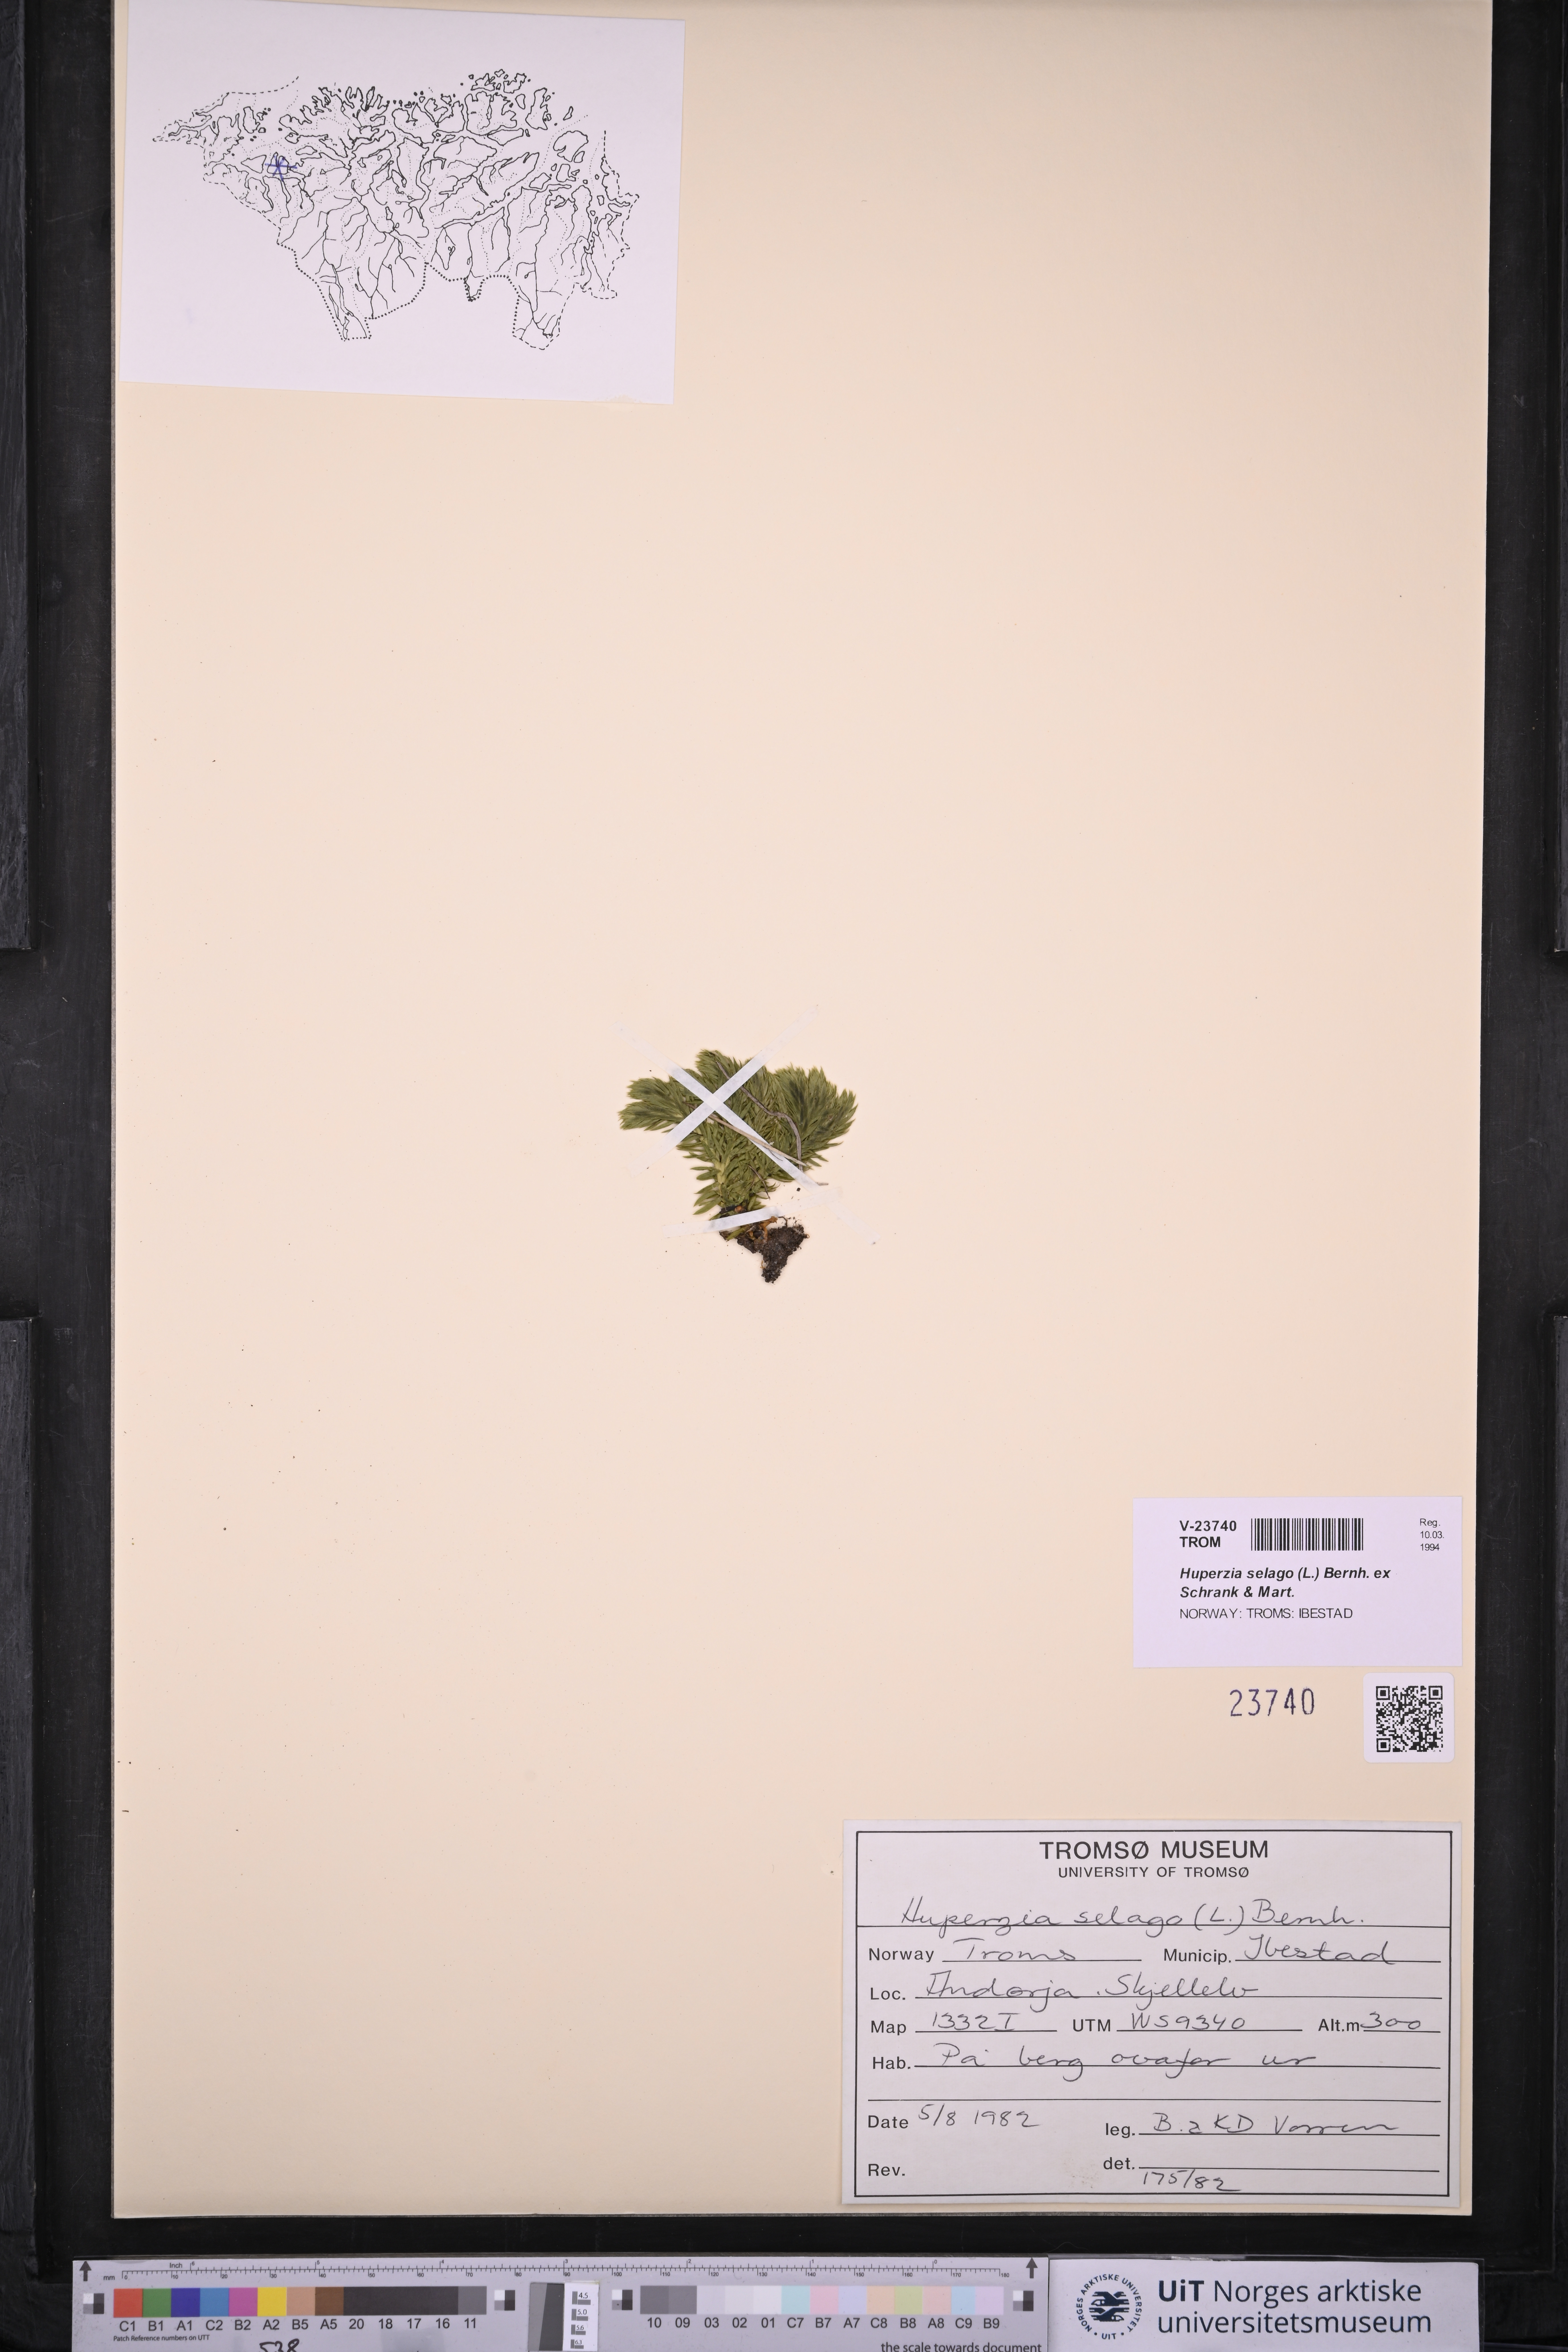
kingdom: Plantae
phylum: Tracheophyta
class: Lycopodiopsida
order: Lycopodiales
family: Lycopodiaceae
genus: Huperzia
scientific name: Huperzia selago
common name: Northern firmoss
